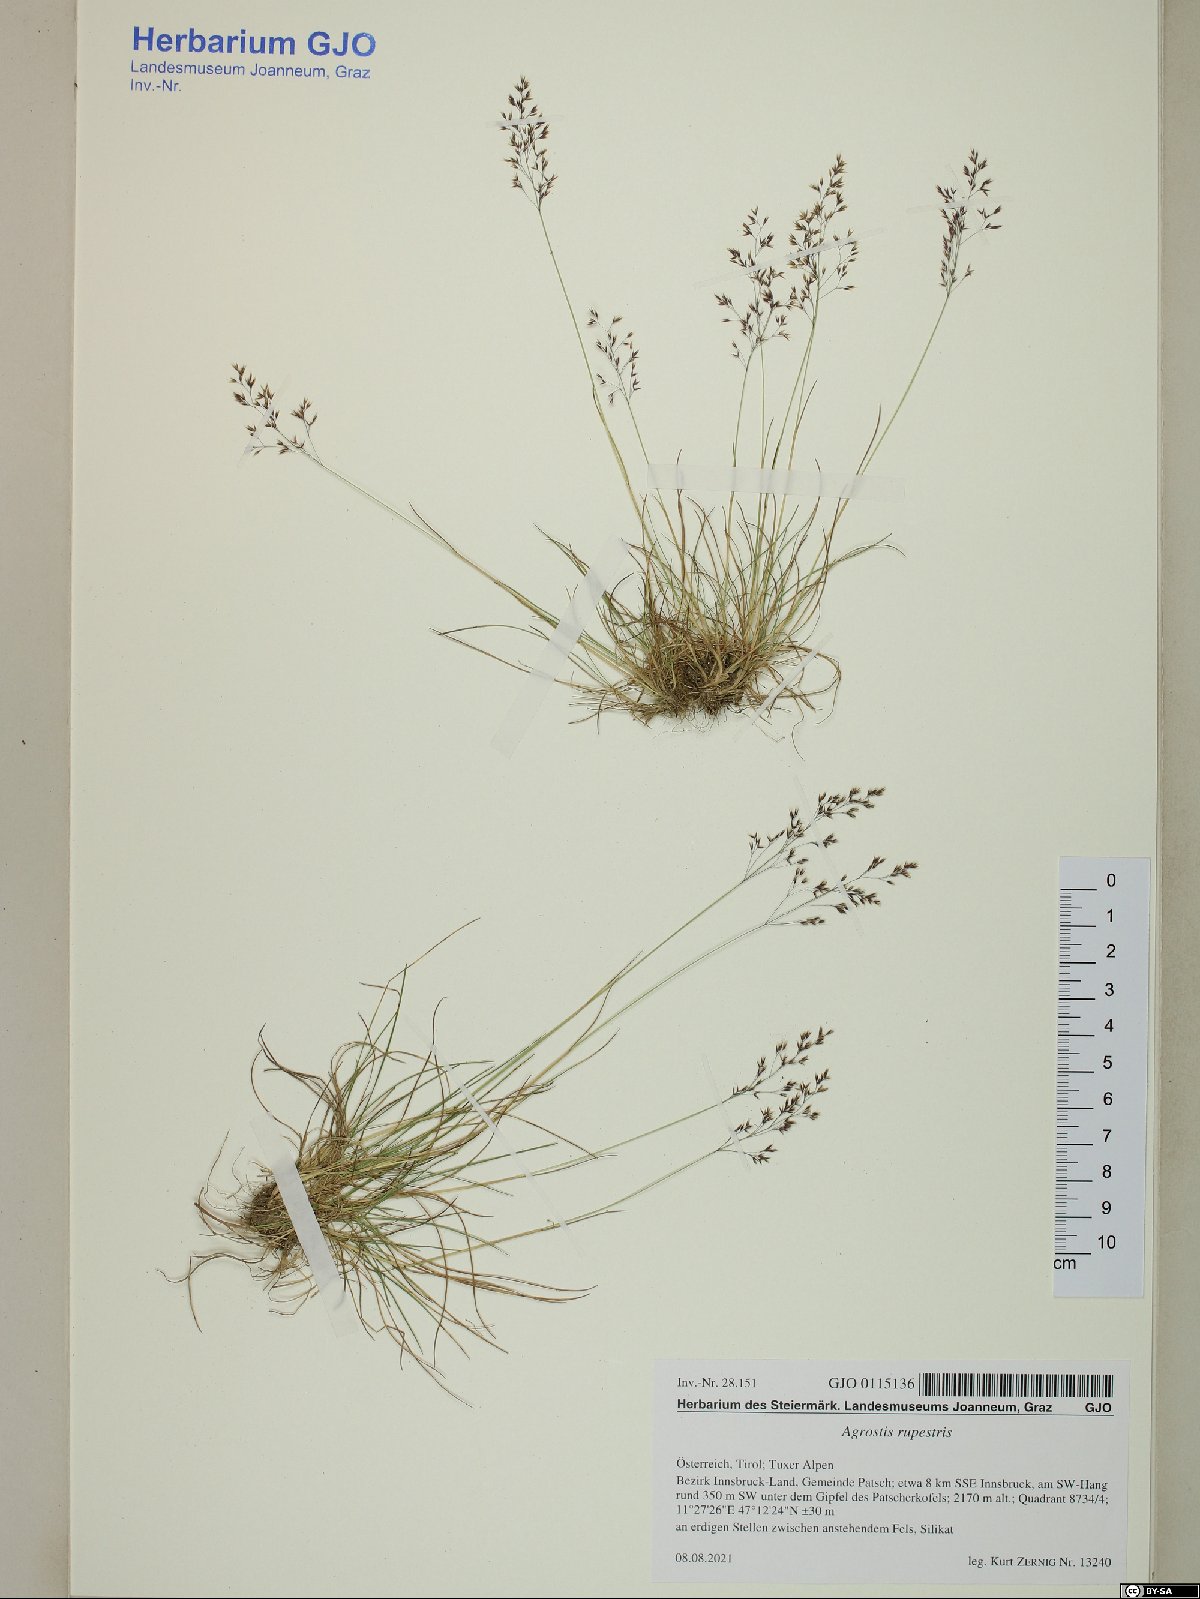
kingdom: Plantae
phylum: Tracheophyta
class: Liliopsida
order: Poales
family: Poaceae
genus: Agrostis
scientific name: Agrostis rupestris
